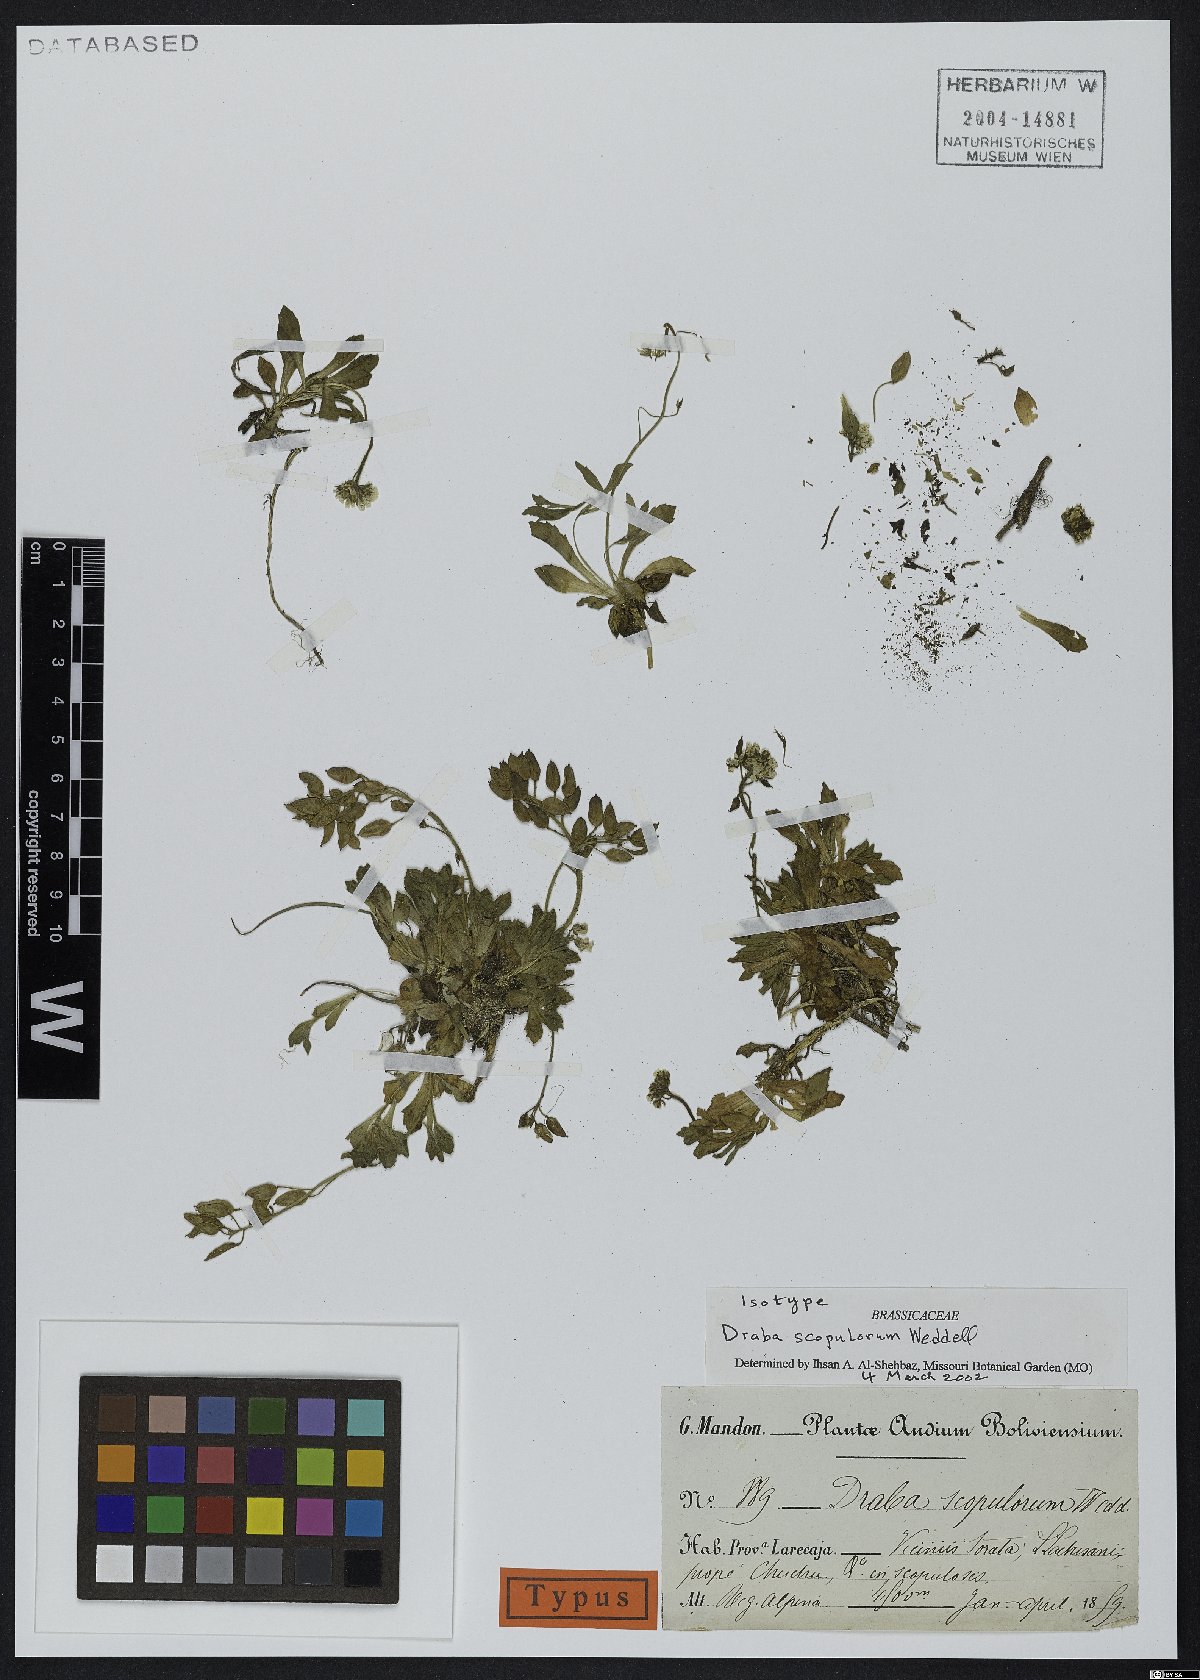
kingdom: Plantae
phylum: Tracheophyta
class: Magnoliopsida
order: Brassicales
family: Brassicaceae
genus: Draba
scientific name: Draba scopulorum
